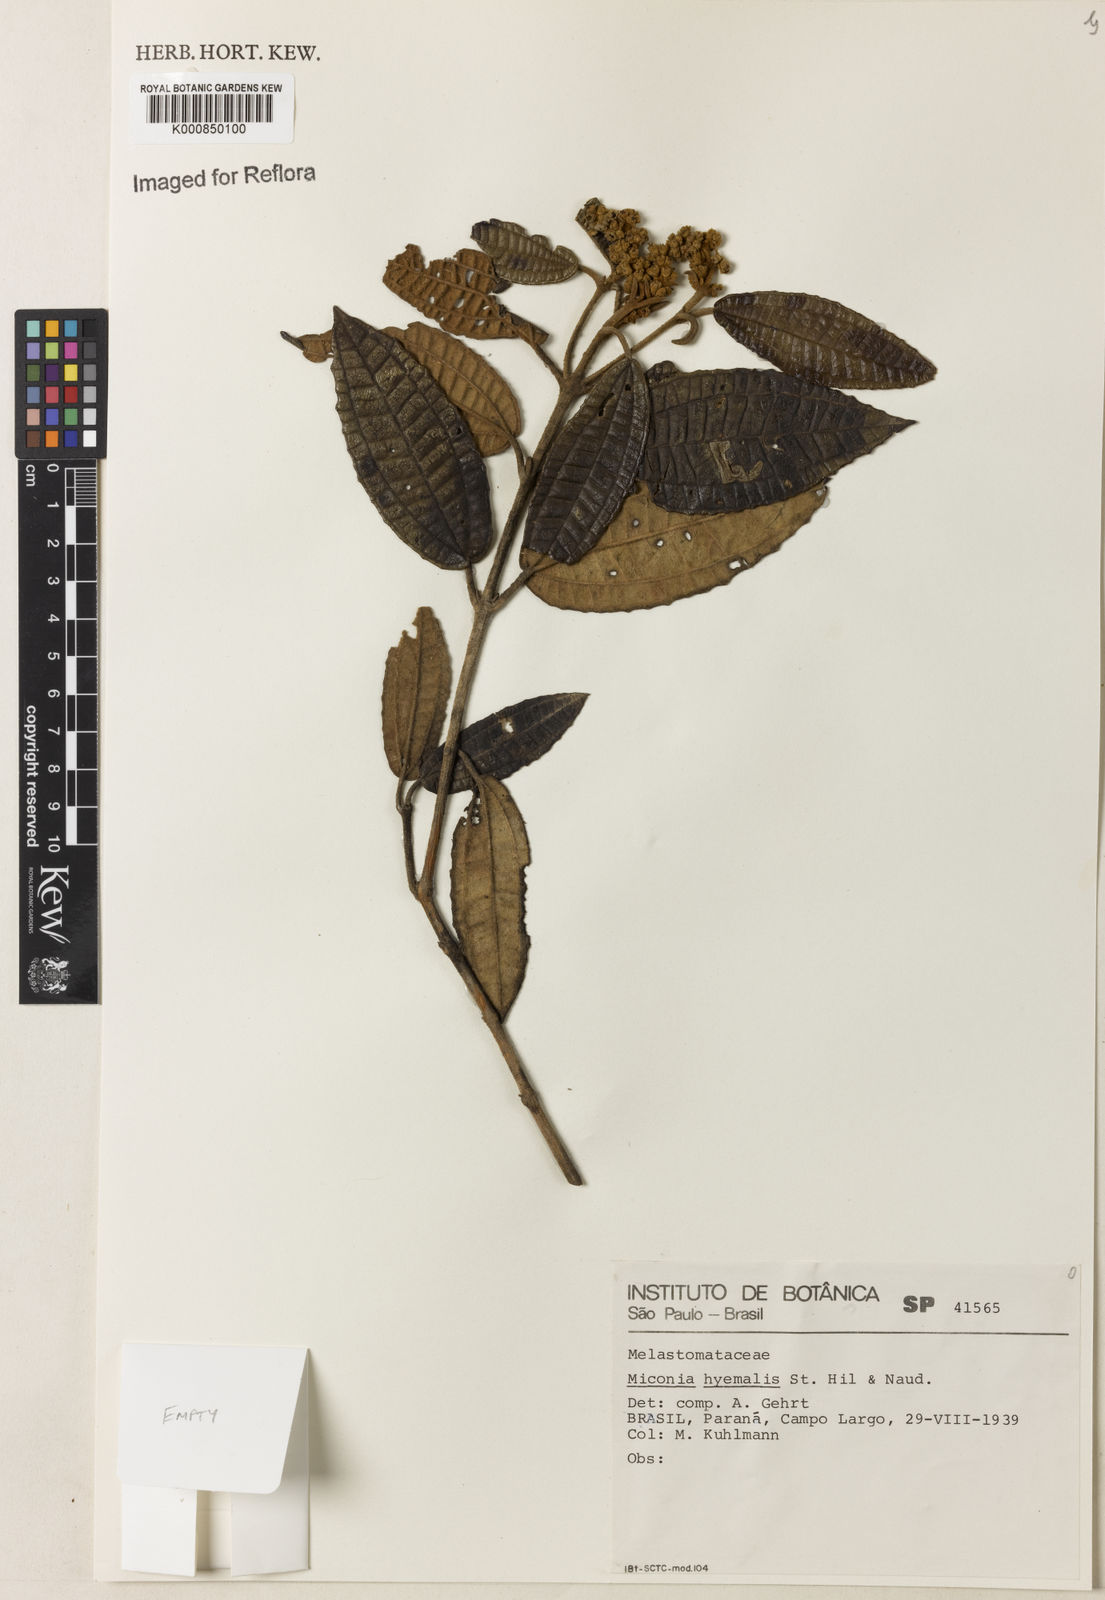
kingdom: Plantae
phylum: Tracheophyta
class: Magnoliopsida
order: Myrtales
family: Melastomataceae
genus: Miconia
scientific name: Miconia hyemalis
